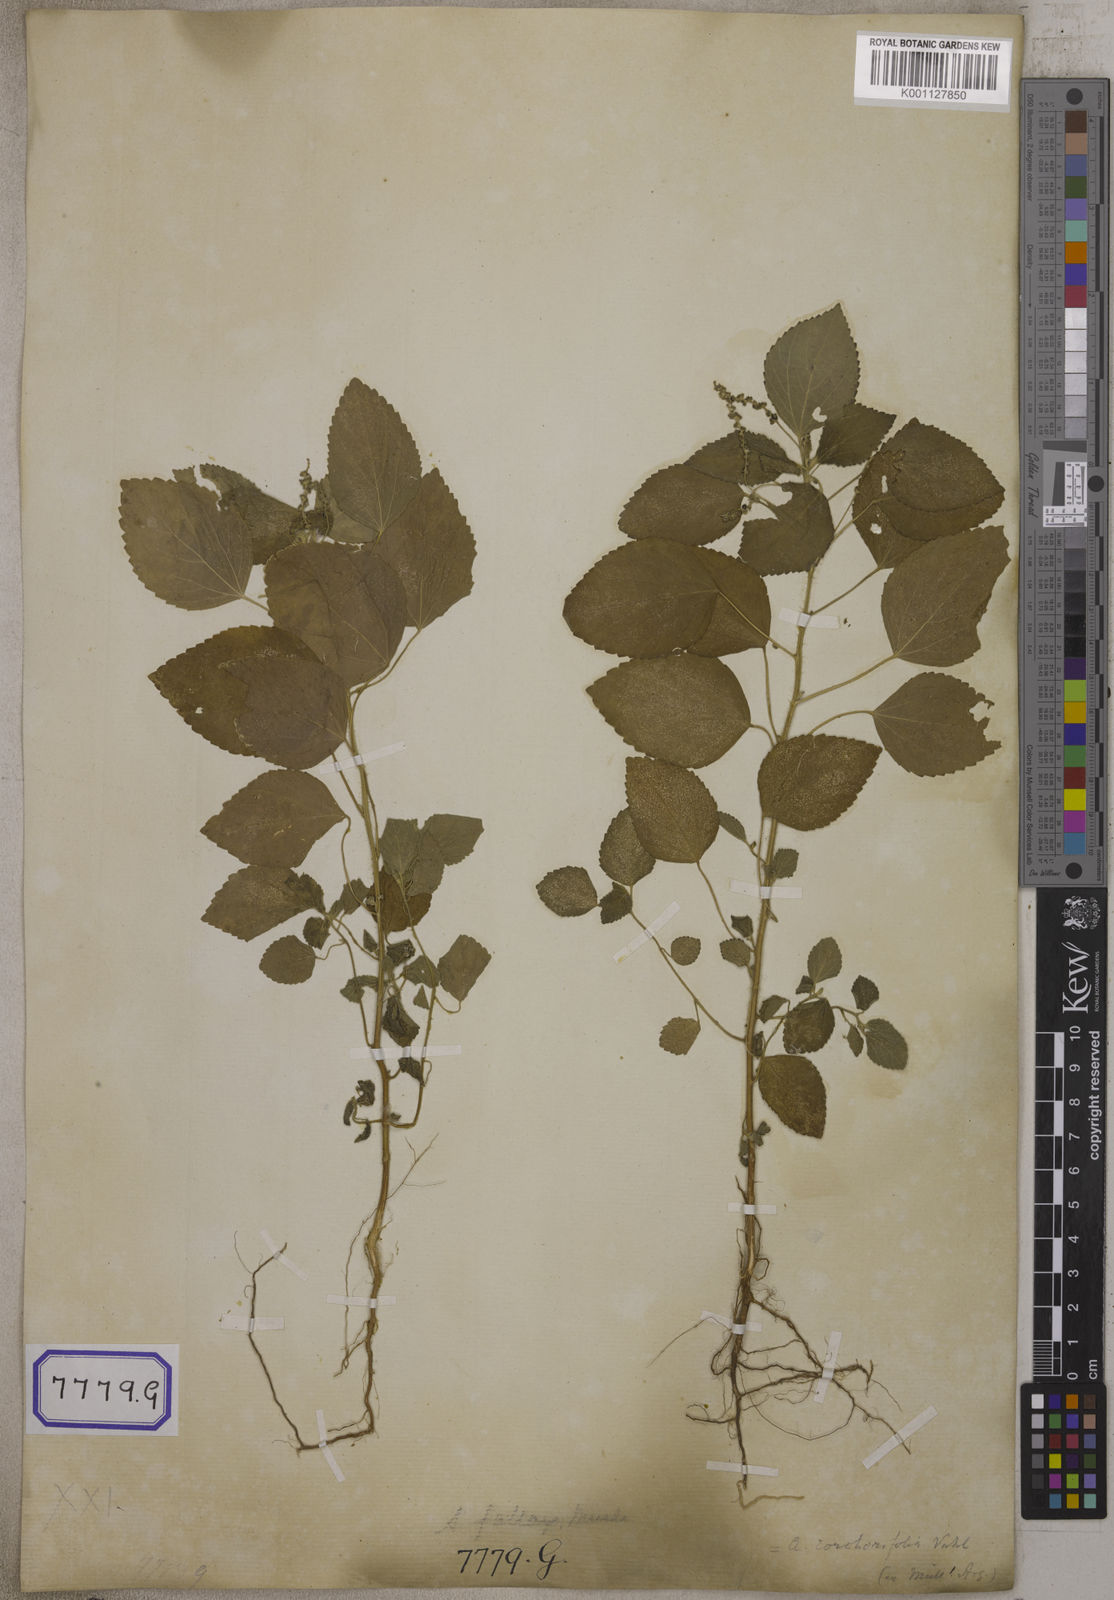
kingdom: Plantae
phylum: Tracheophyta
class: Magnoliopsida
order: Malpighiales
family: Euphorbiaceae
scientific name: Euphorbiaceae
